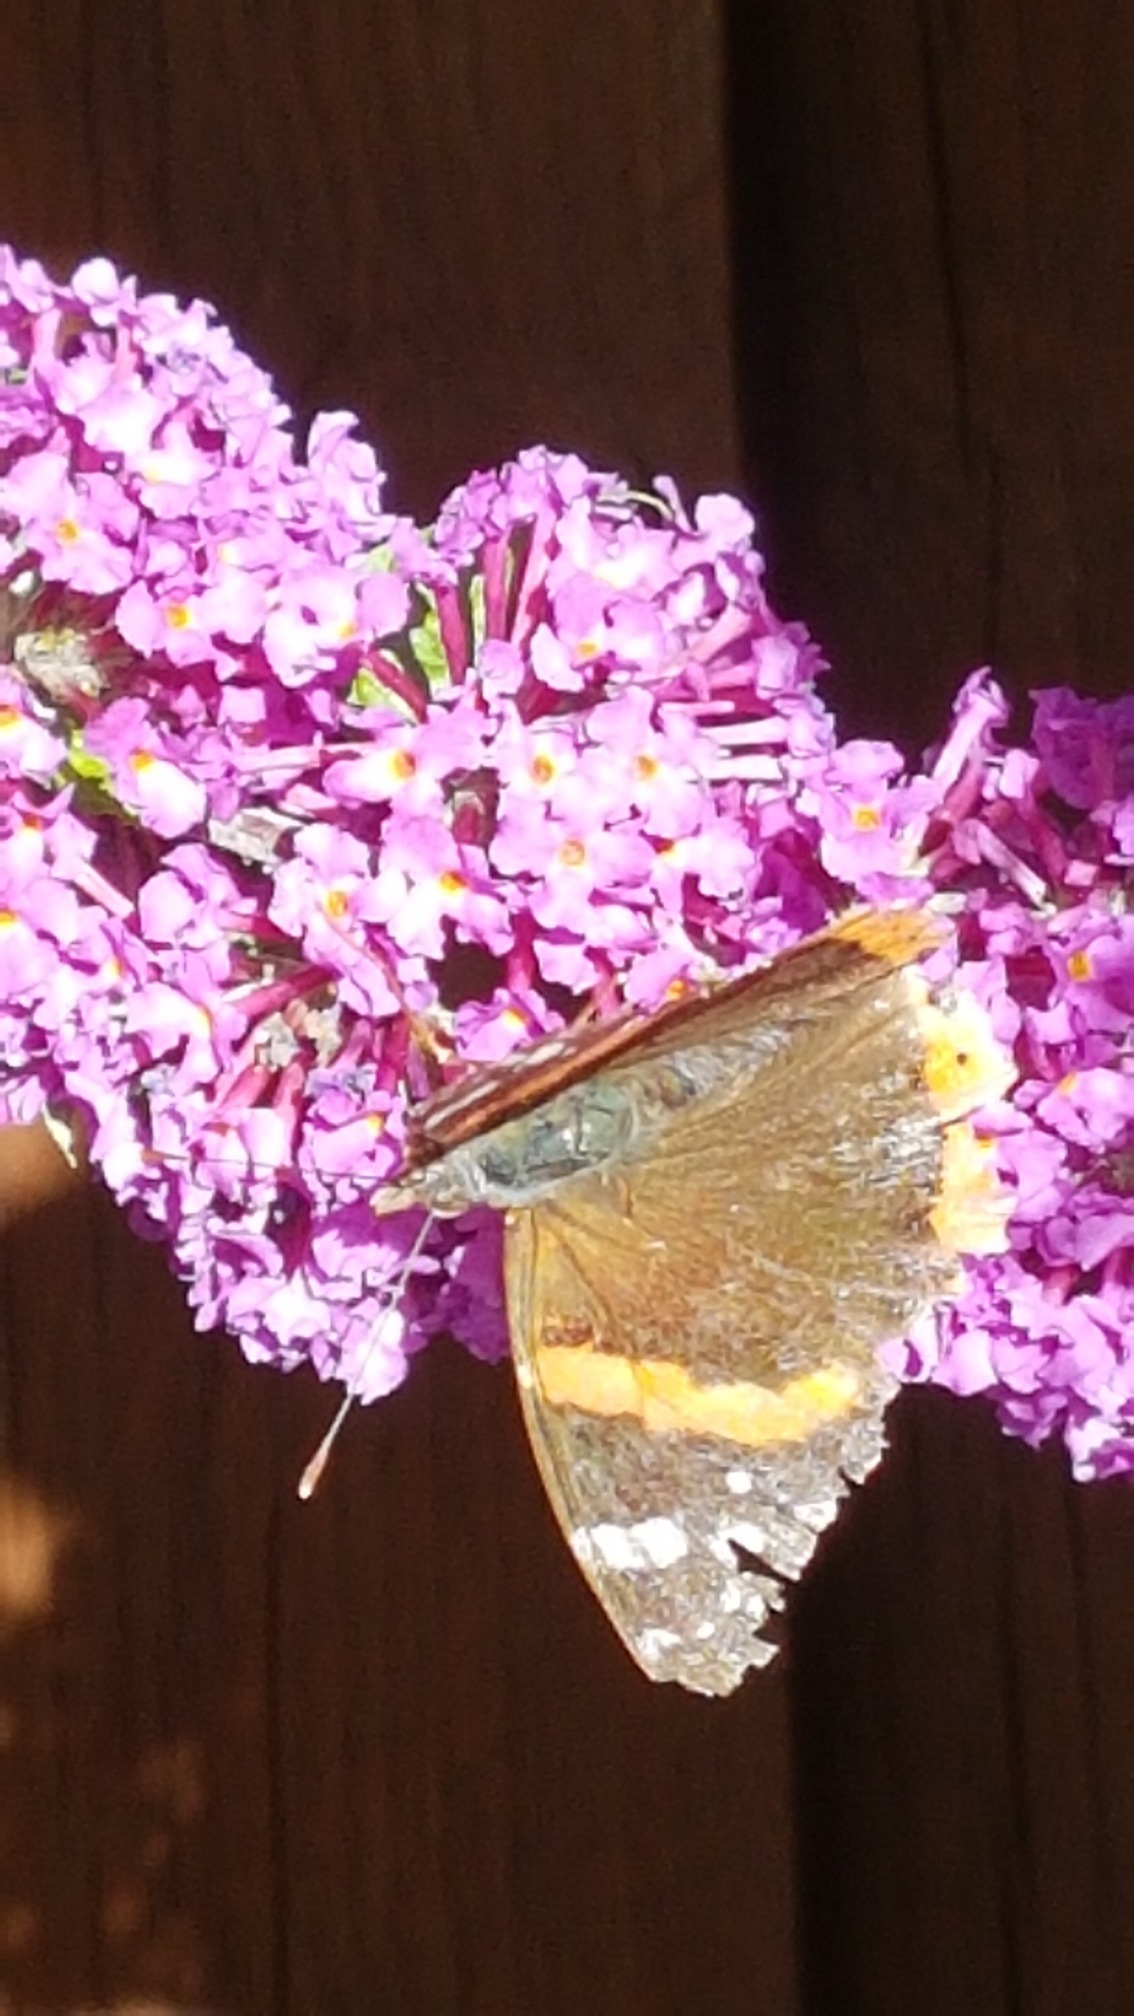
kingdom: Animalia
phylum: Arthropoda
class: Insecta
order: Lepidoptera
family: Nymphalidae
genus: Vanessa
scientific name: Vanessa atalanta
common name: Admiral
